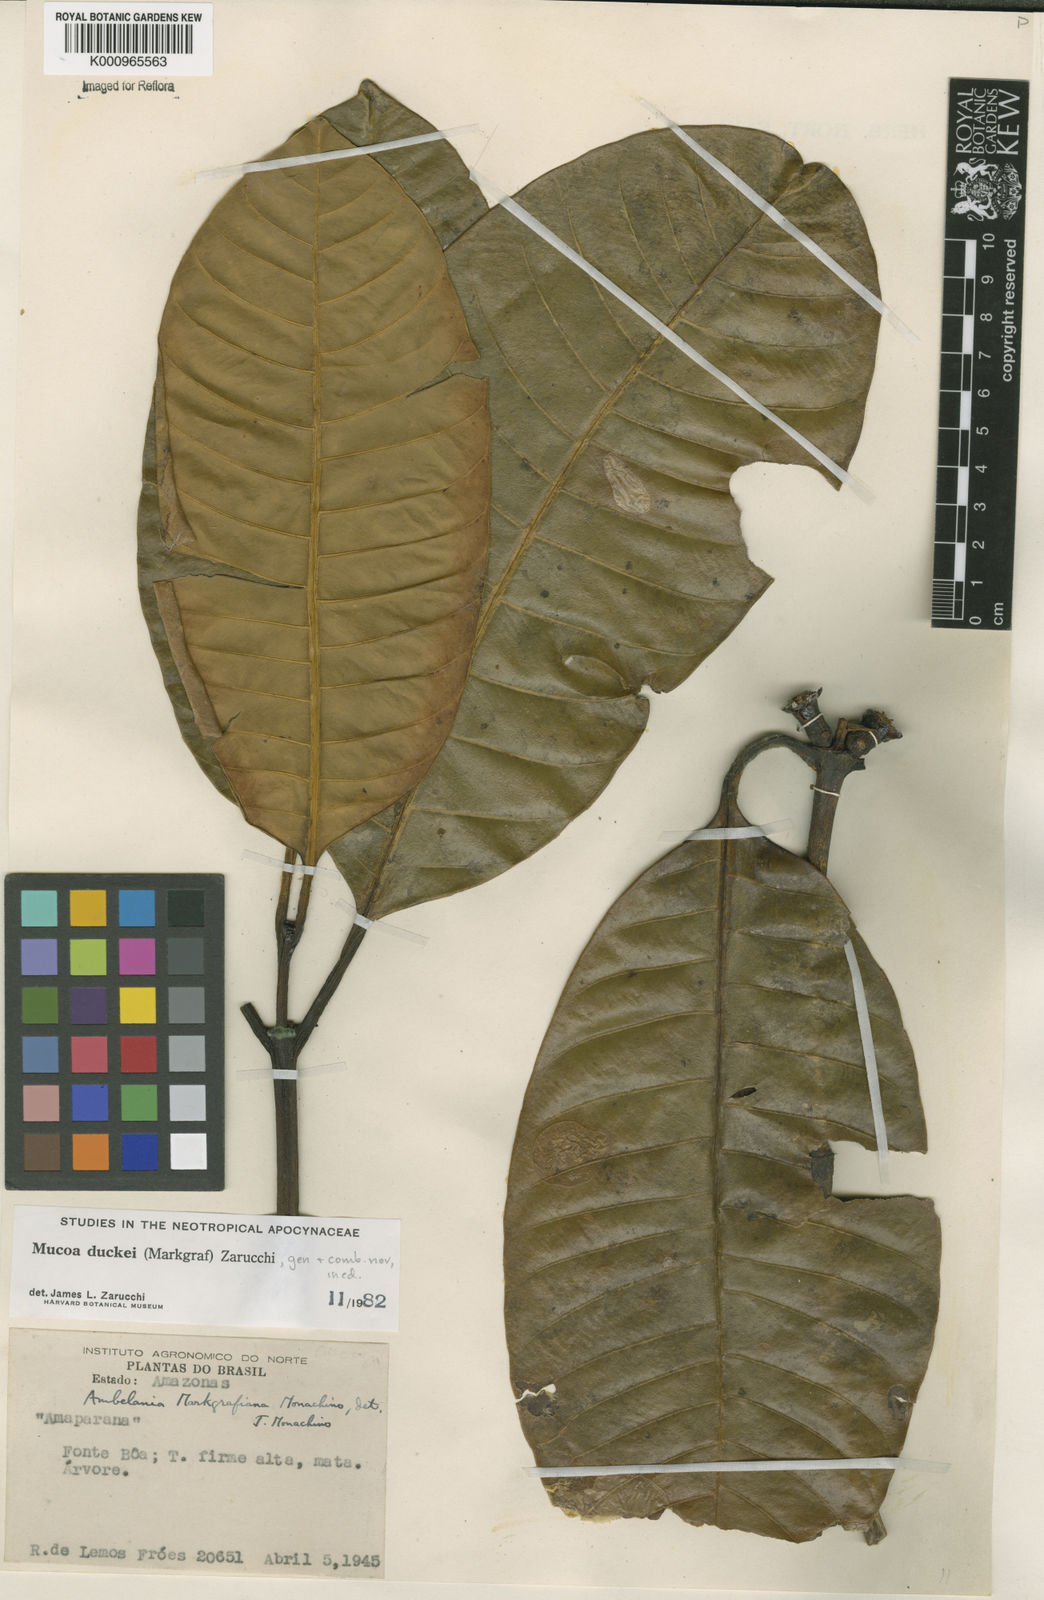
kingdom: Plantae
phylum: Tracheophyta
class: Magnoliopsida
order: Gentianales
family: Apocynaceae
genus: Mucoa
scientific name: Mucoa duckei
